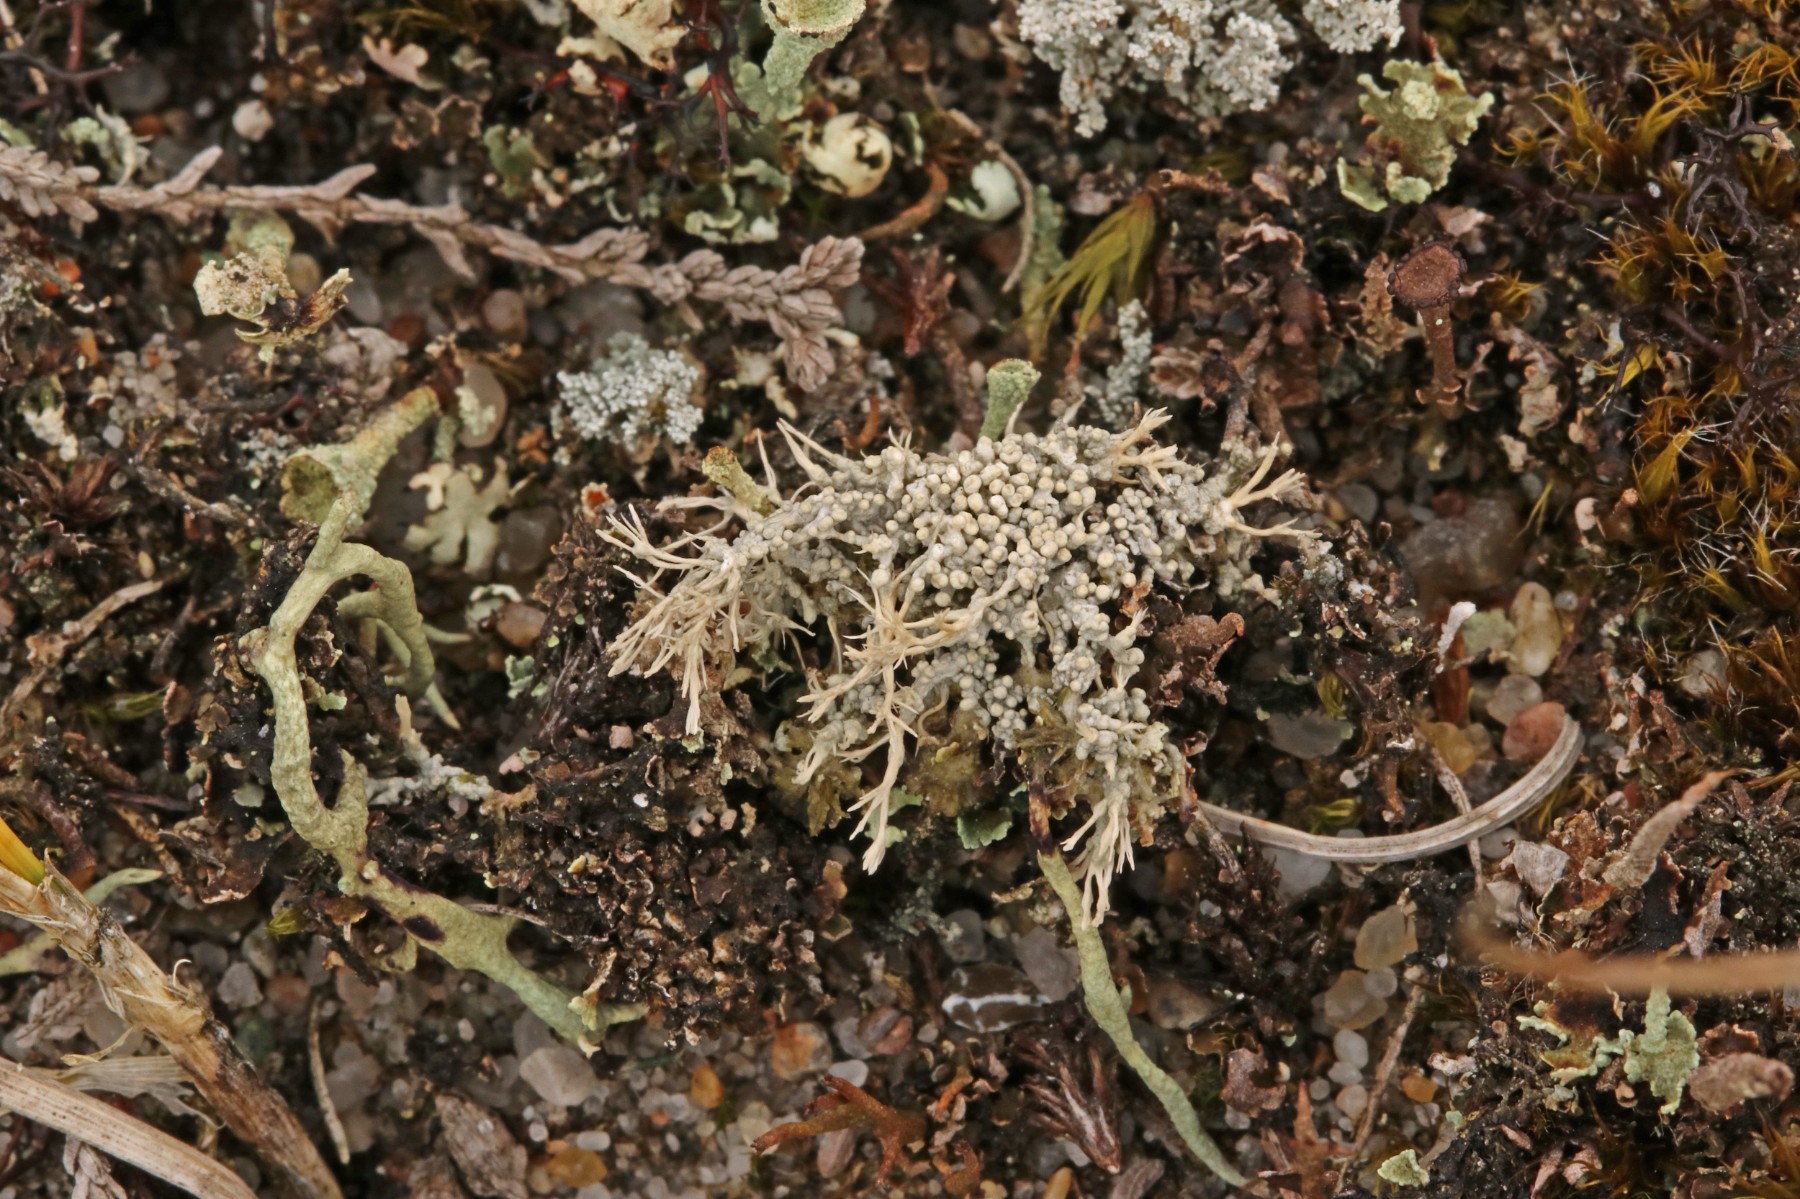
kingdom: Fungi
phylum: Ascomycota
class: Lecanoromycetes
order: Pertusariales
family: Ochrolechiaceae
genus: Ochrolechia
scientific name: Ochrolechia frigida
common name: fjeld-blegskivelav
